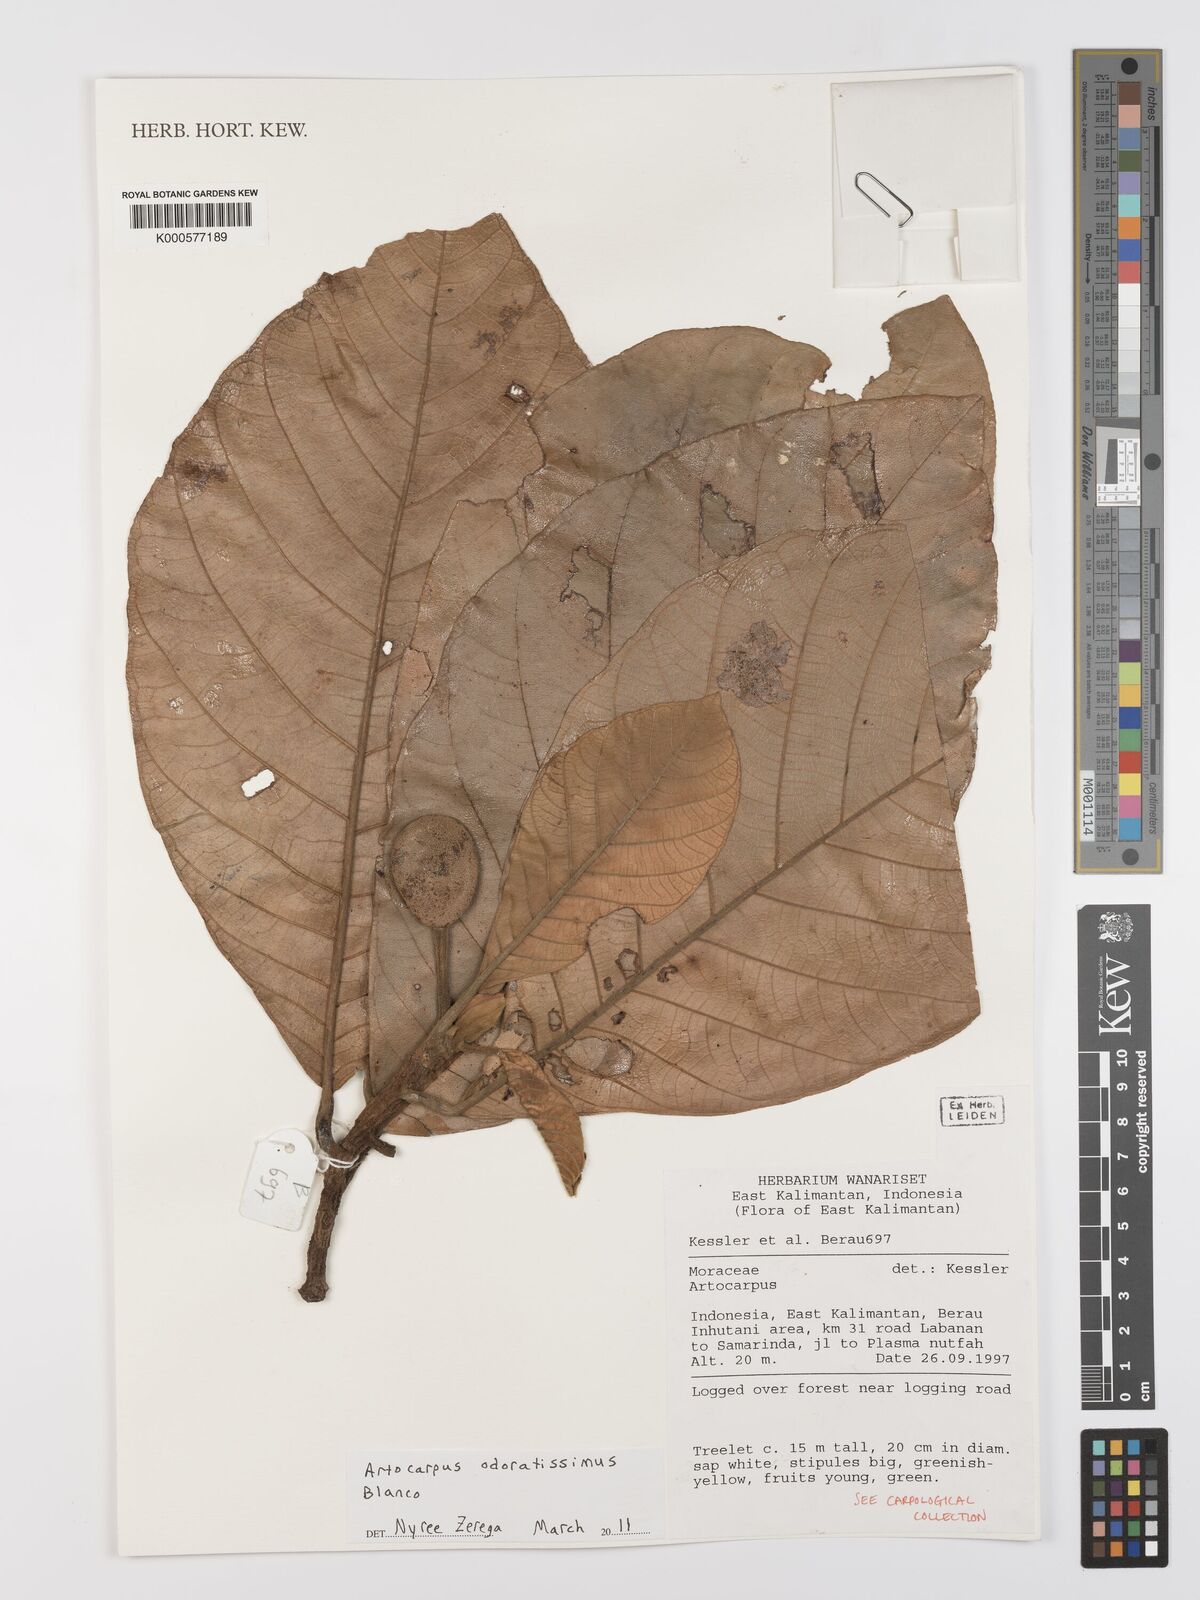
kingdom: Plantae
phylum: Tracheophyta
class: Magnoliopsida
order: Rosales
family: Moraceae
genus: Artocarpus
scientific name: Artocarpus odoratissimus
